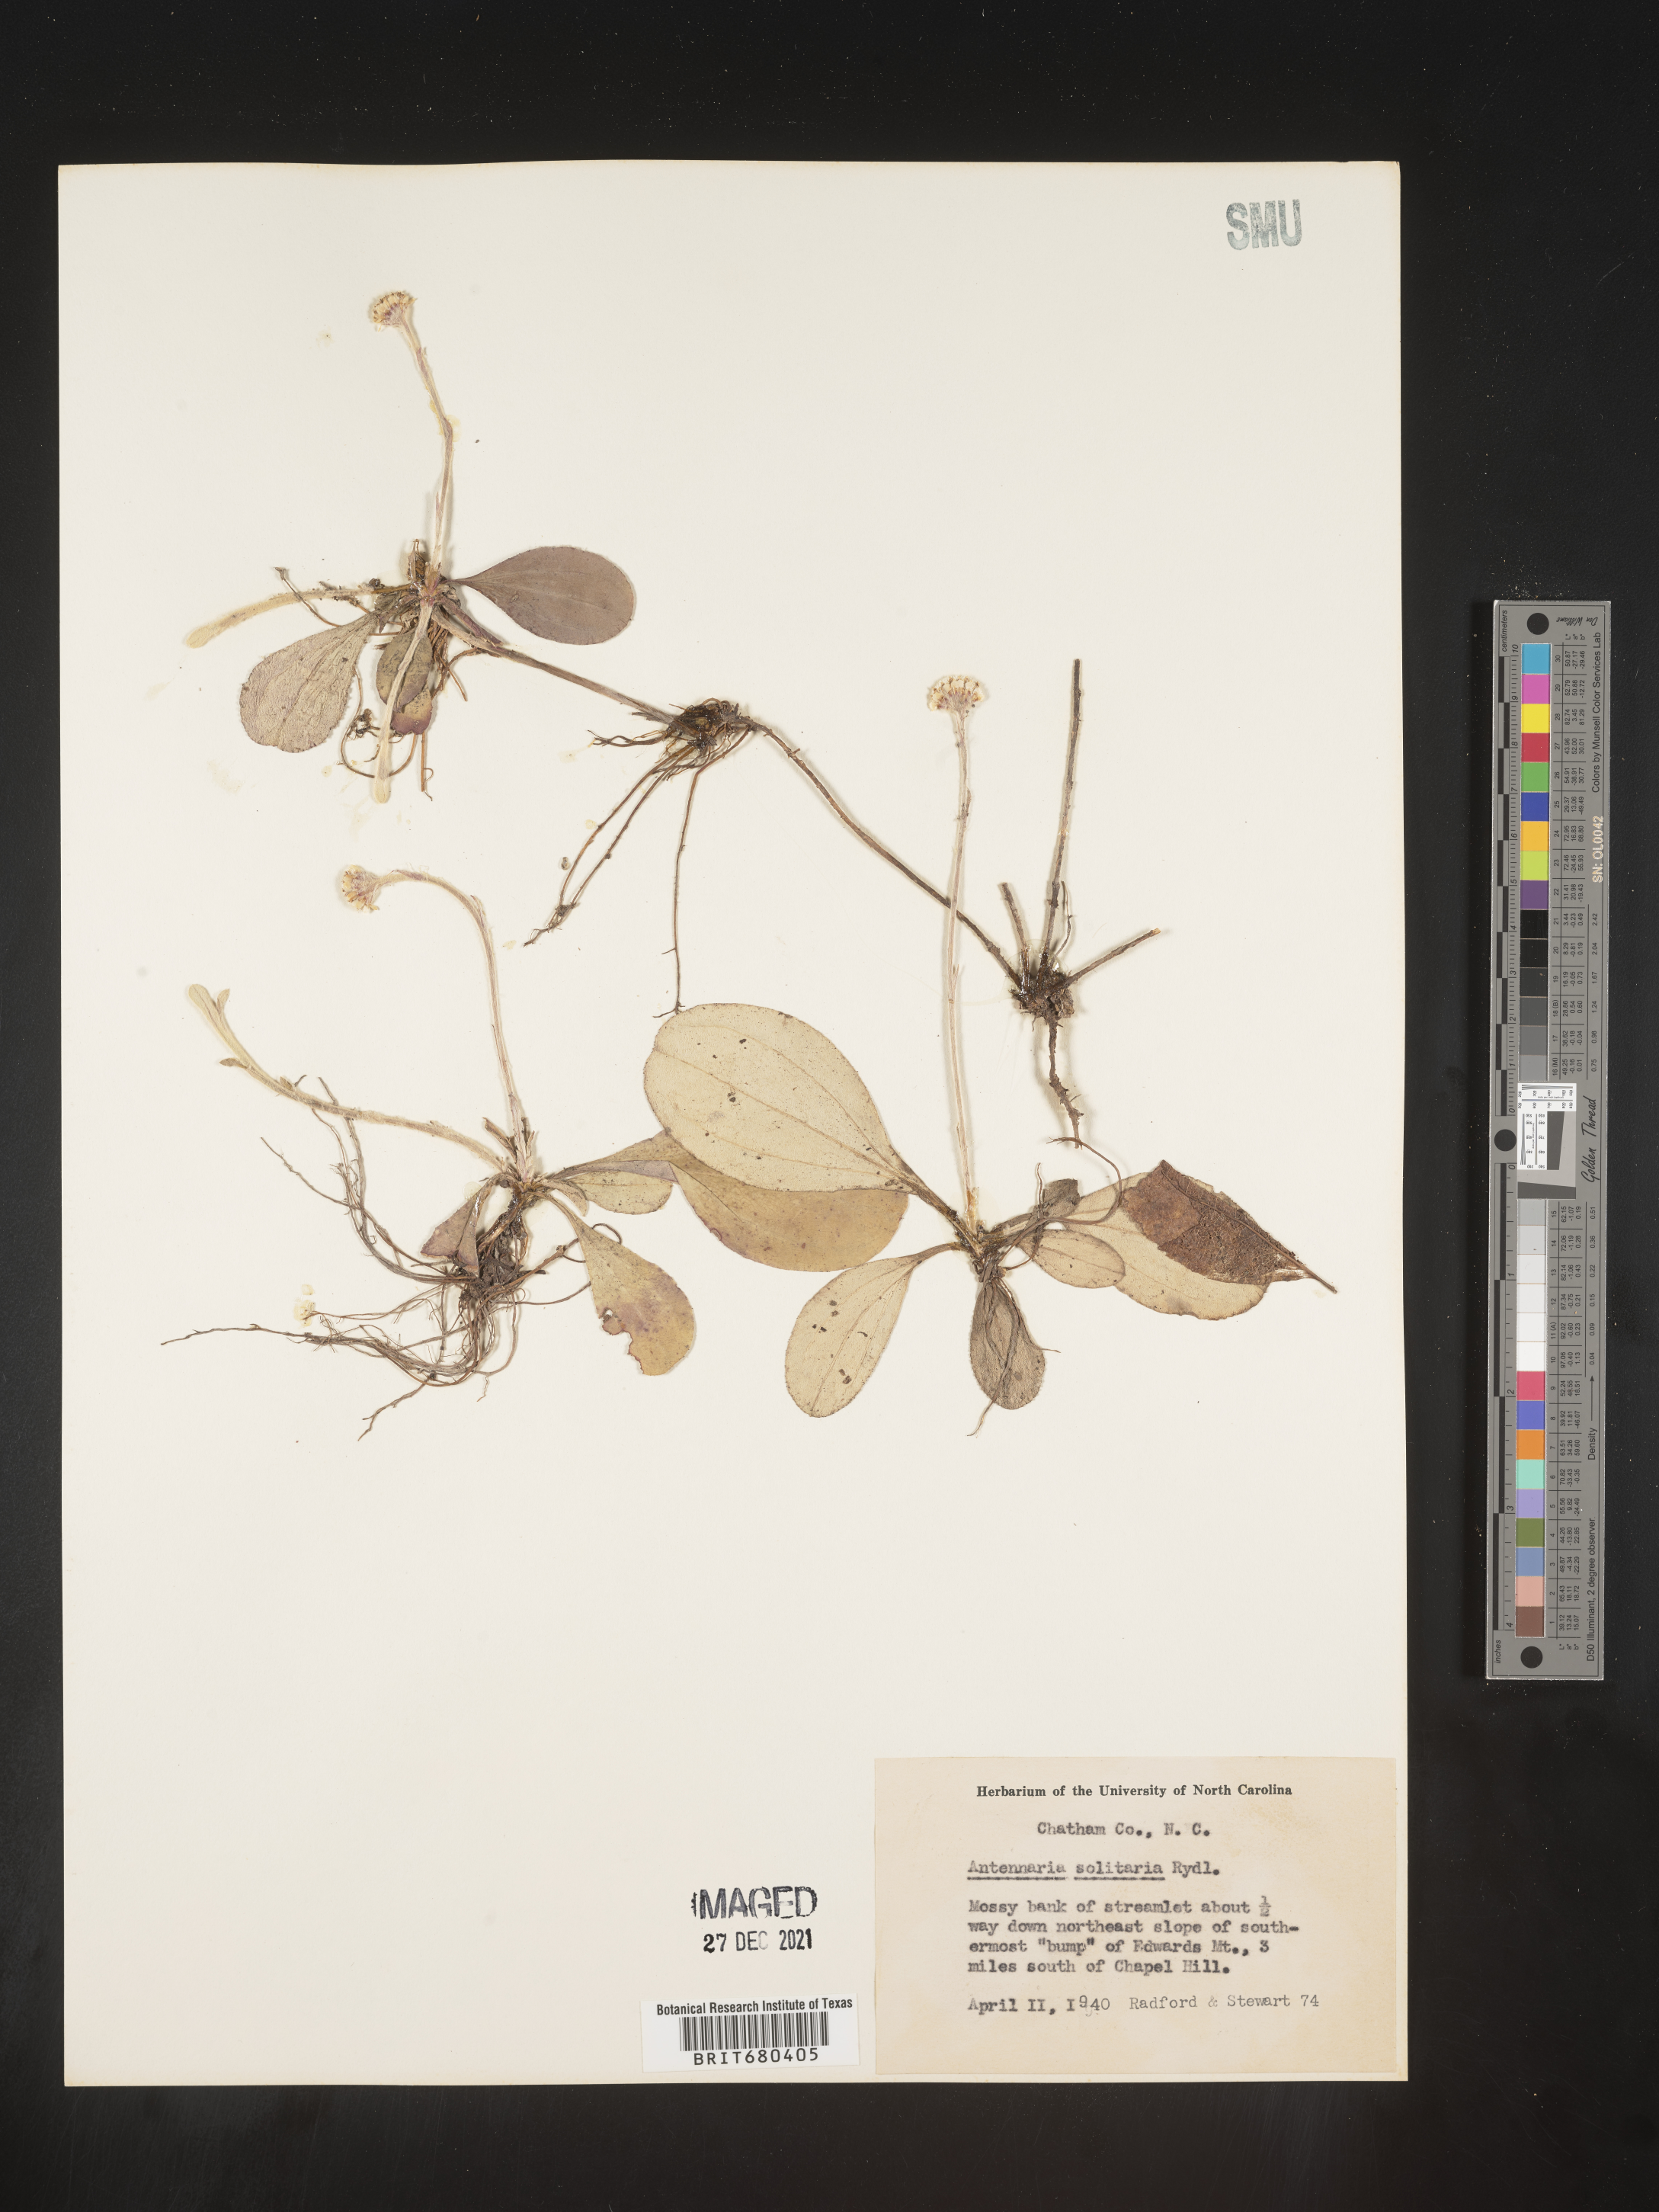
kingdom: Plantae
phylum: Tracheophyta
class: Magnoliopsida
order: Asterales
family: Asteraceae
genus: Antennaria
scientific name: Antennaria solitaria
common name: Single-head pussytoes
